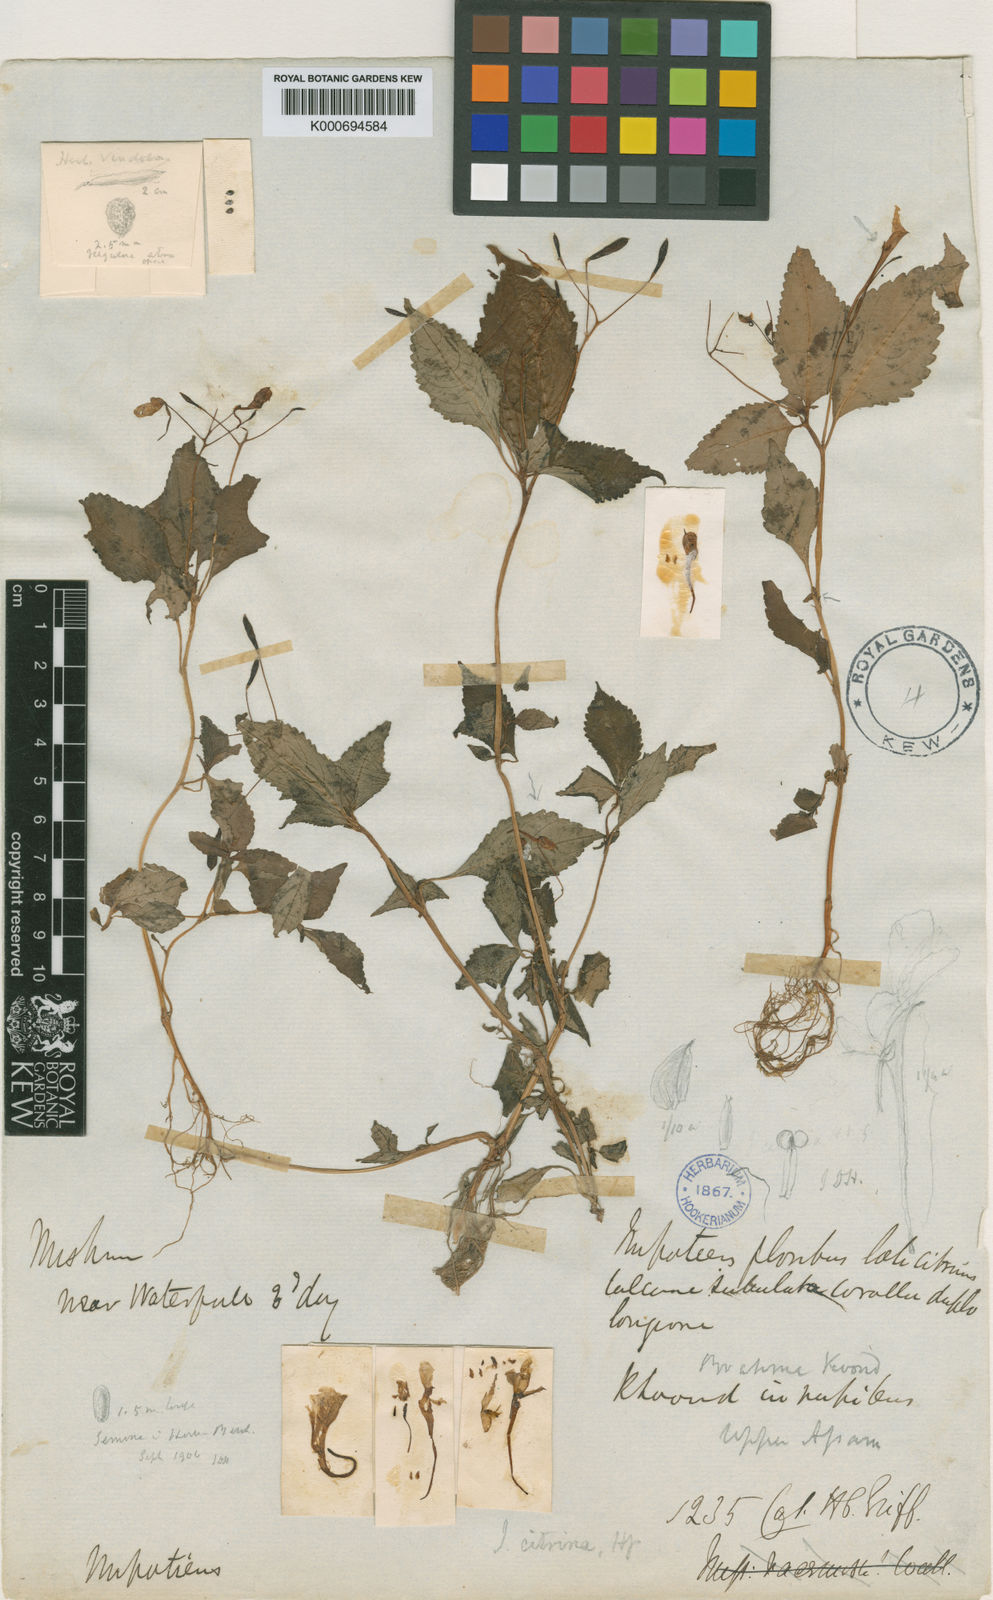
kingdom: Plantae
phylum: Tracheophyta
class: Magnoliopsida
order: Ericales
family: Balsaminaceae
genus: Impatiens
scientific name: Impatiens citrina
